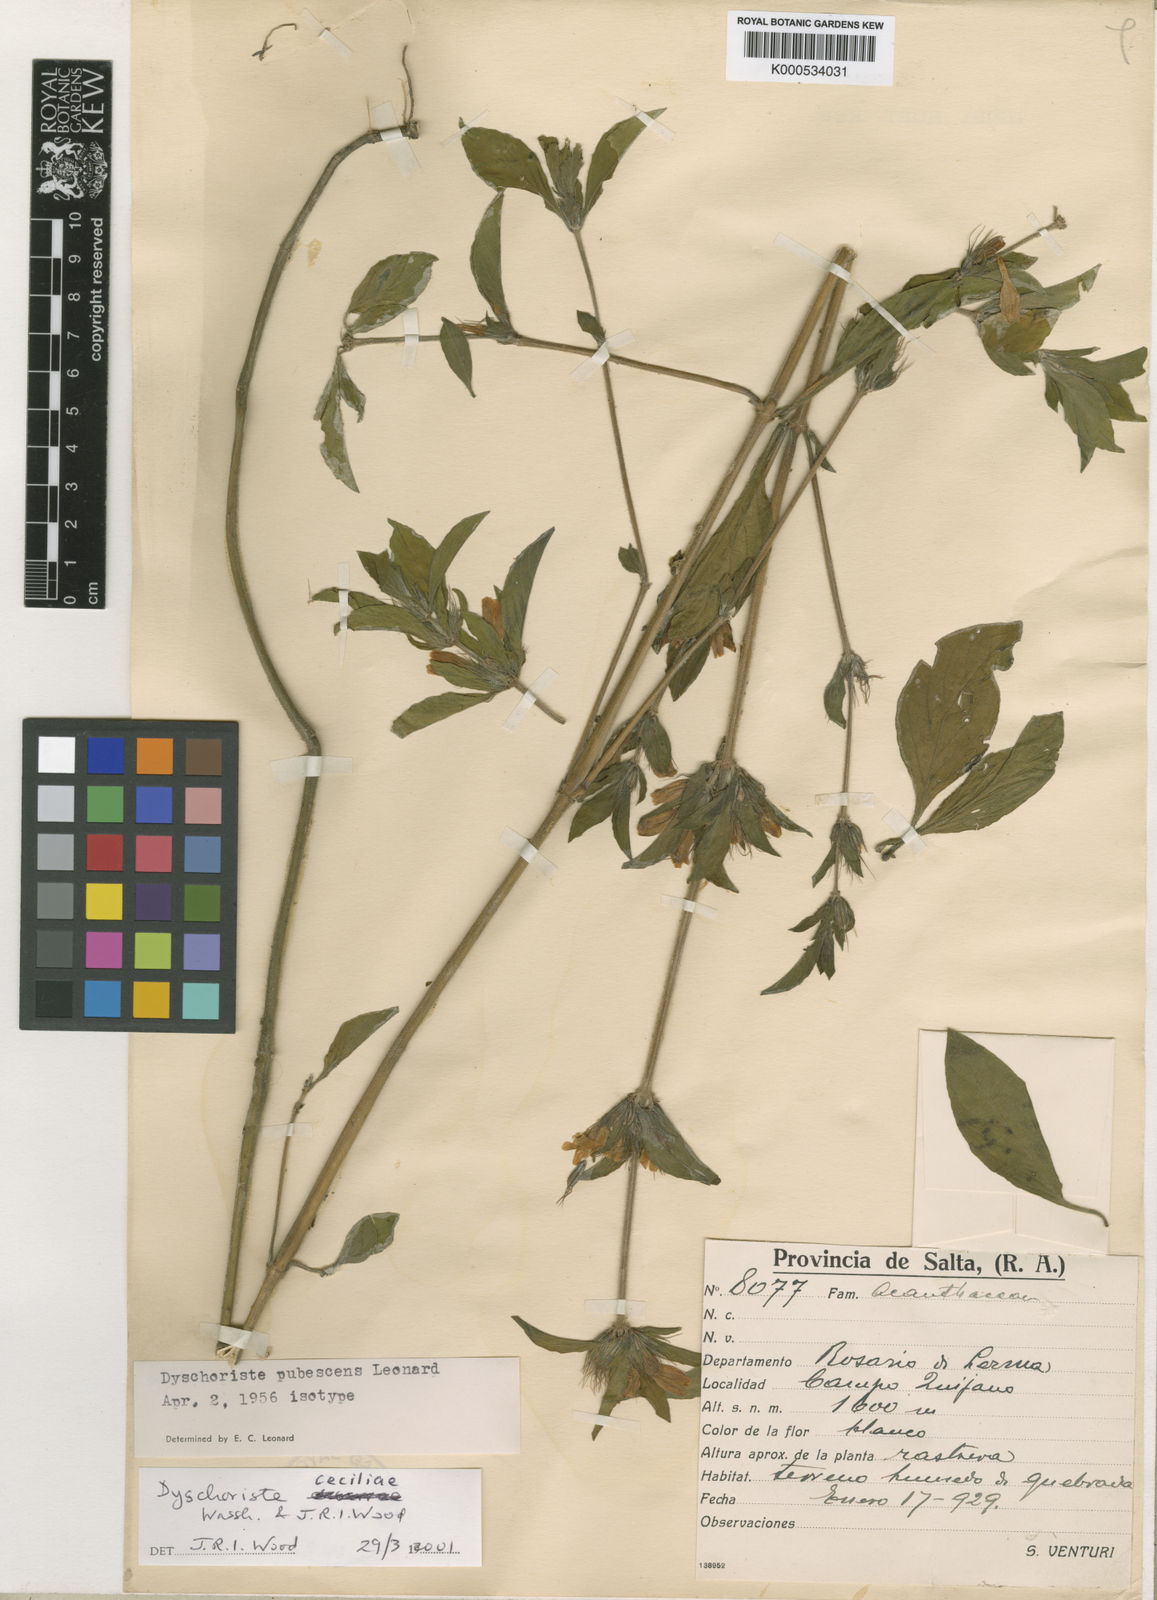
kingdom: Plantae
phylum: Tracheophyta
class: Magnoliopsida
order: Lamiales
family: Acanthaceae
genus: Dyschoriste
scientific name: Dyschoriste trichanthera
